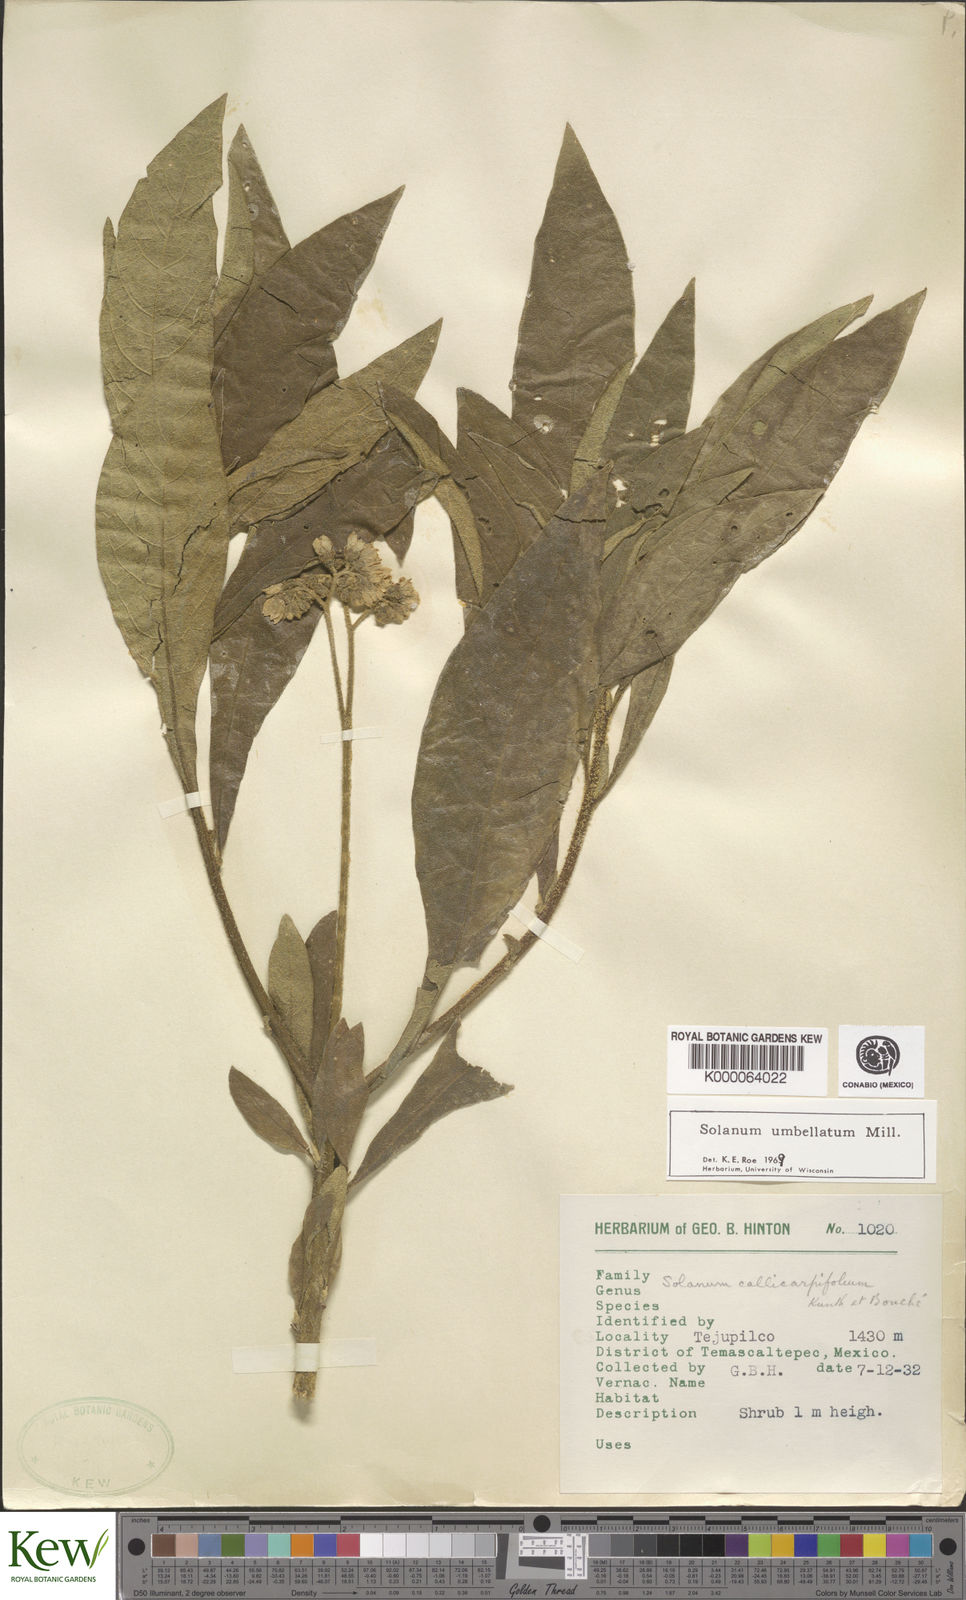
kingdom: Plantae
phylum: Tracheophyta
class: Magnoliopsida
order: Solanales
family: Solanaceae
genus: Solanum
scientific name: Solanum umbellatum
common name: Nightshade
